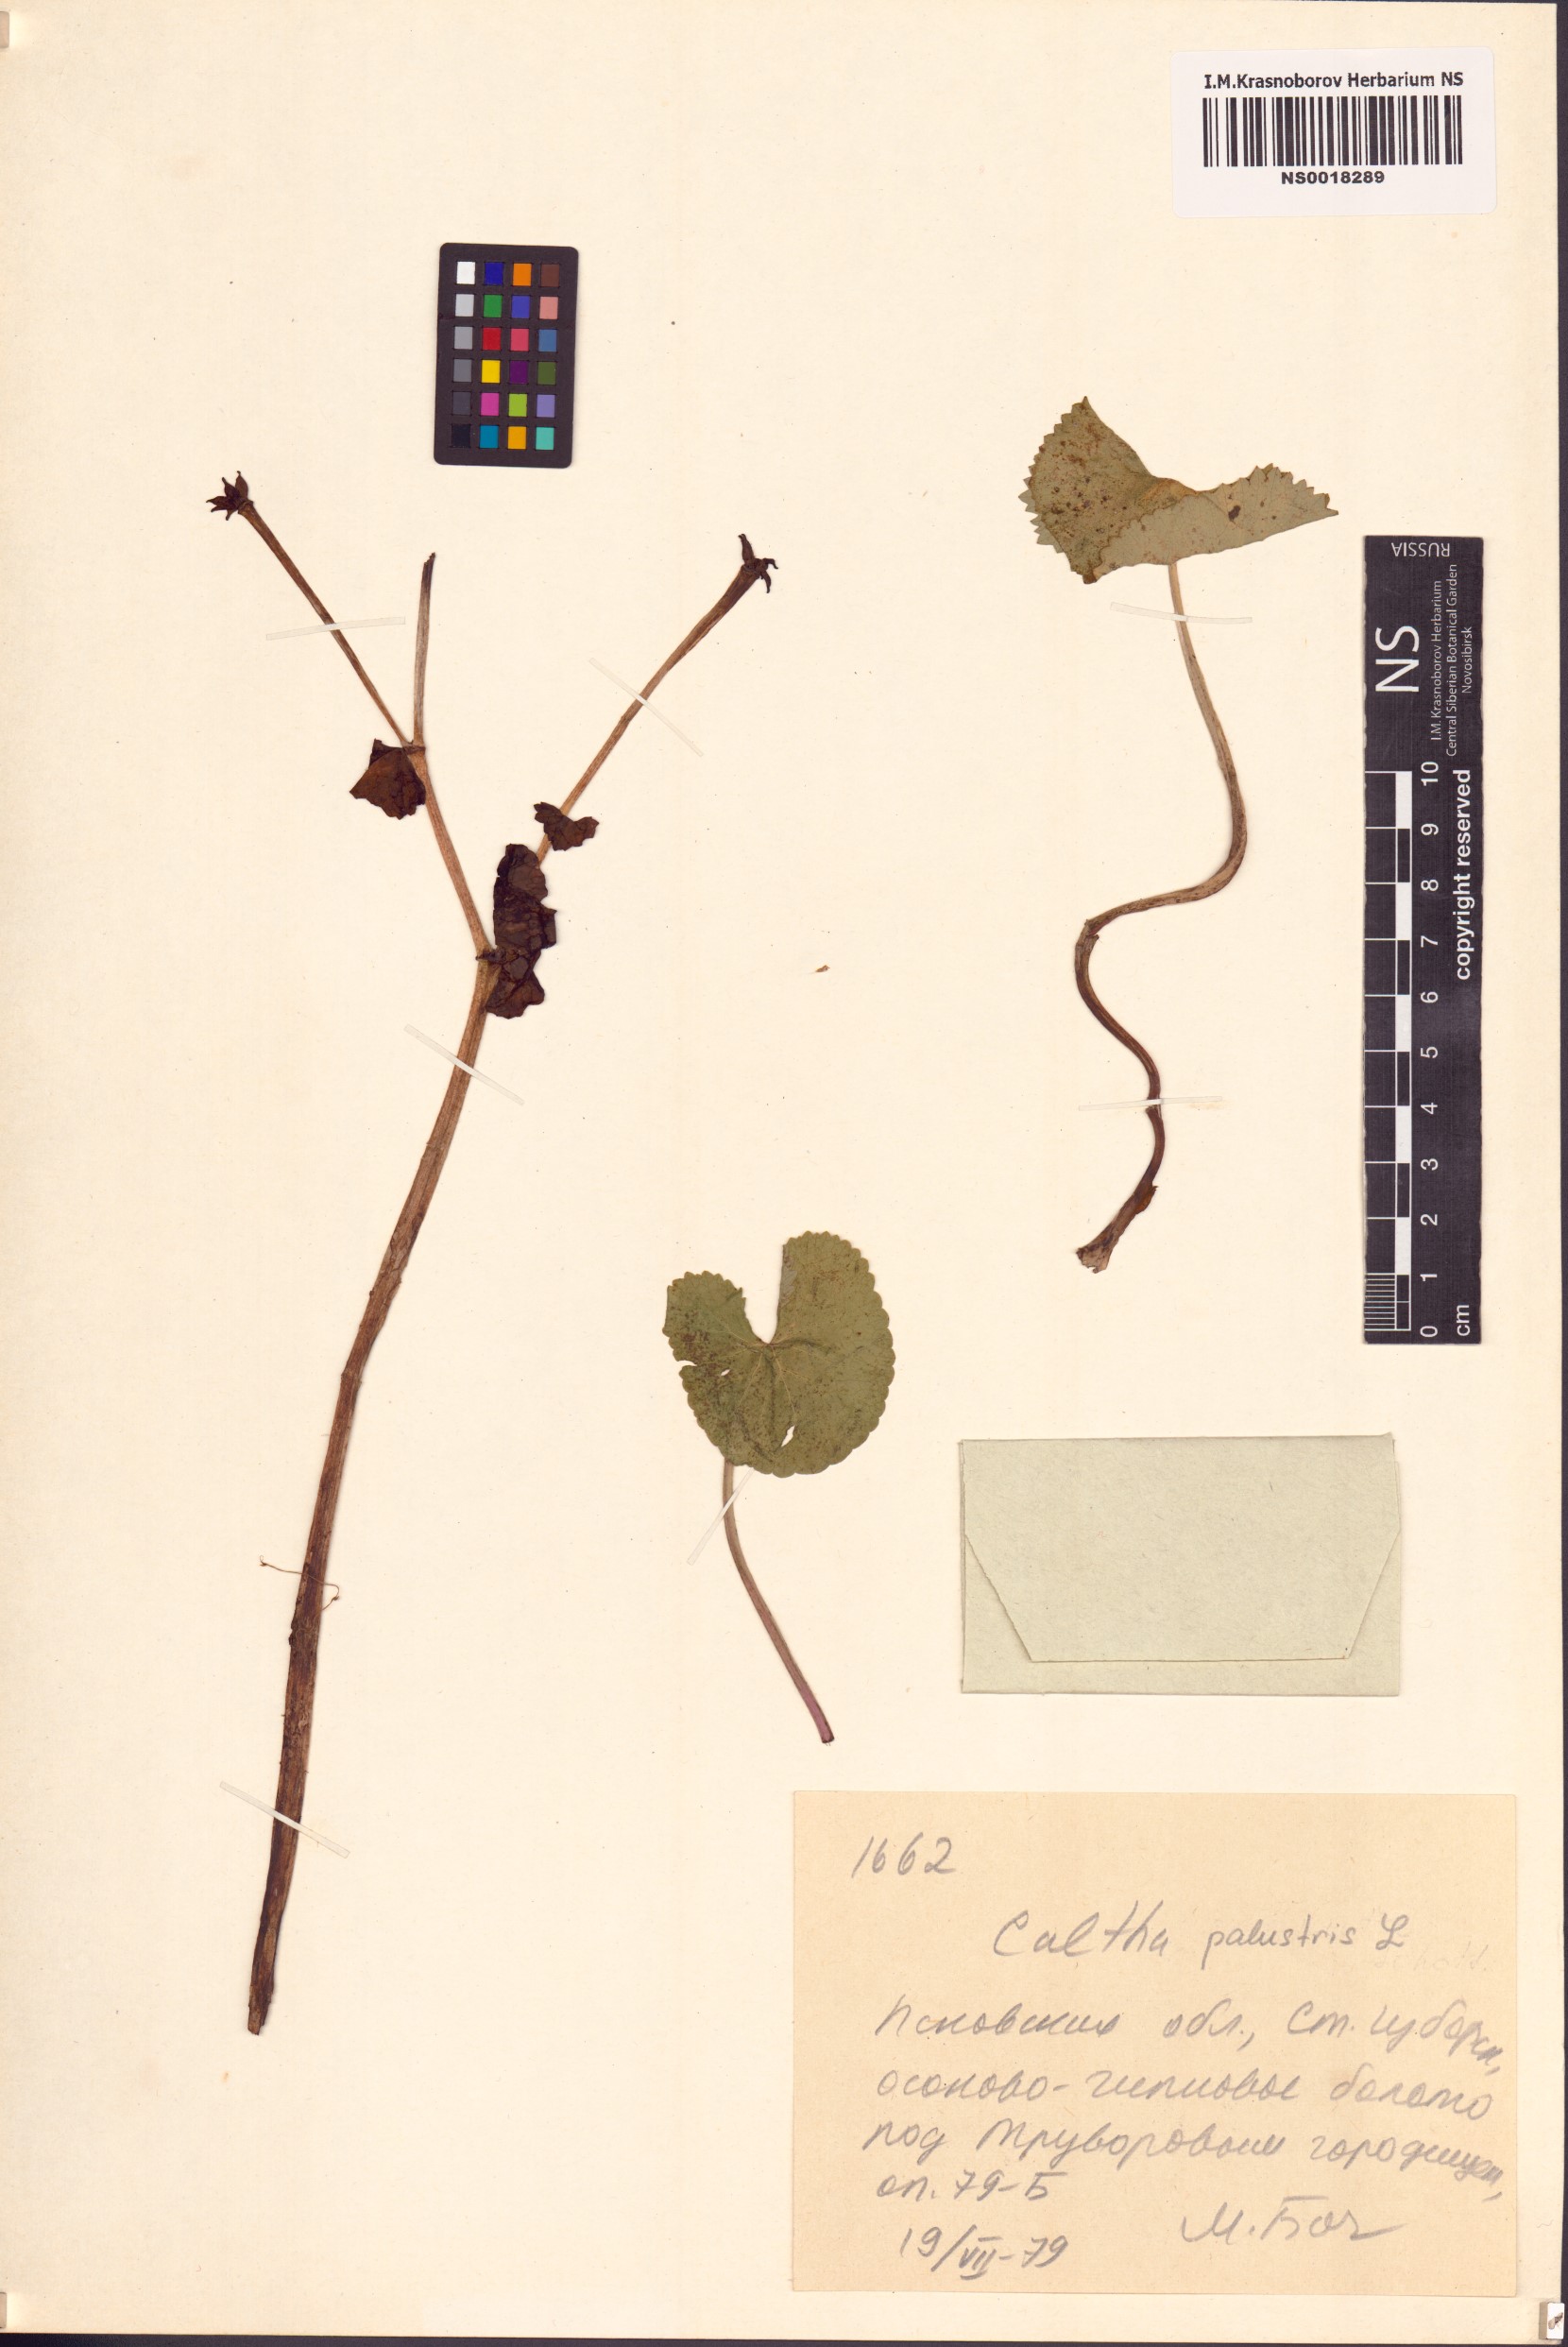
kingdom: Plantae
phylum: Tracheophyta
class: Magnoliopsida
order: Ranunculales
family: Ranunculaceae
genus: Caltha
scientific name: Caltha palustris
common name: Marsh marigold
